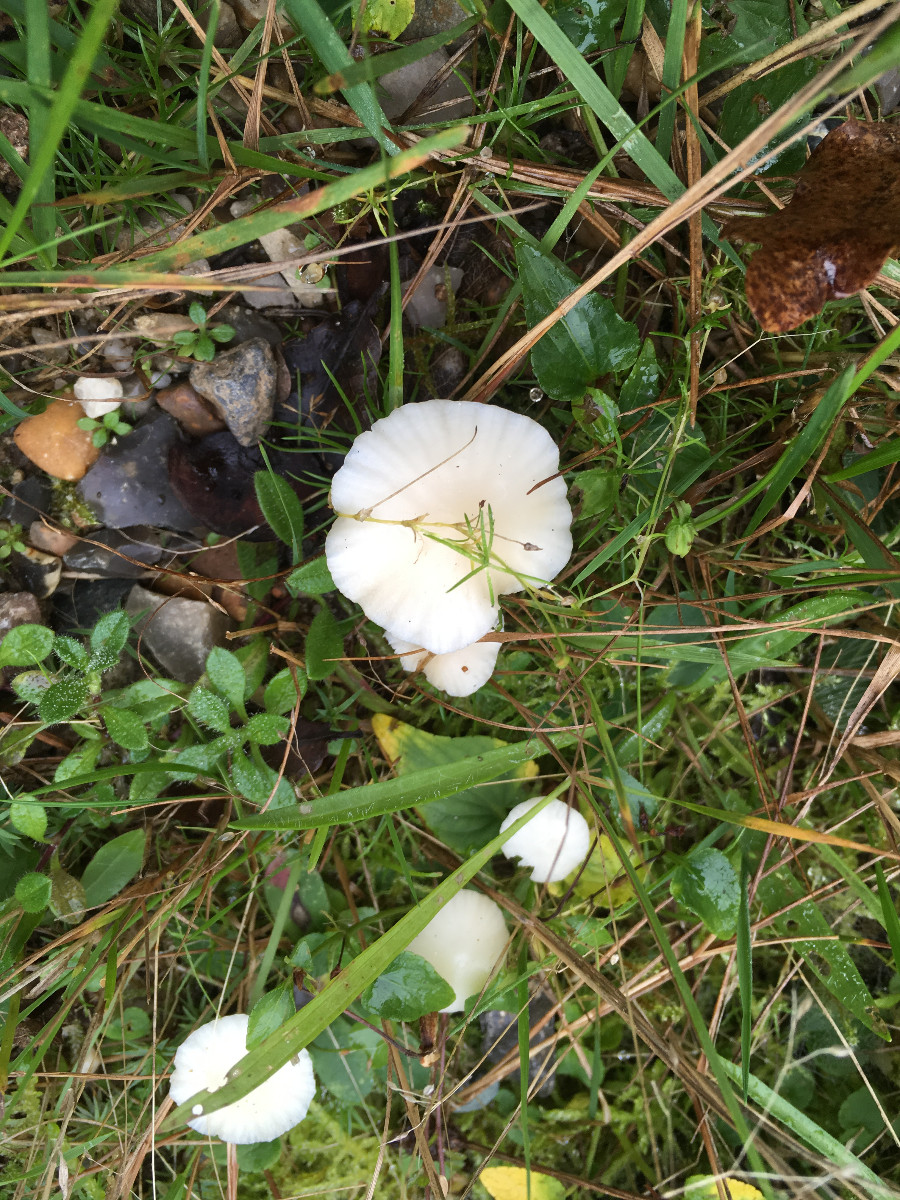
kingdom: Fungi
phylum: Basidiomycota
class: Agaricomycetes
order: Agaricales
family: Hygrophoraceae
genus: Cuphophyllus
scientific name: Cuphophyllus virgineus
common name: snehvid vokshat
